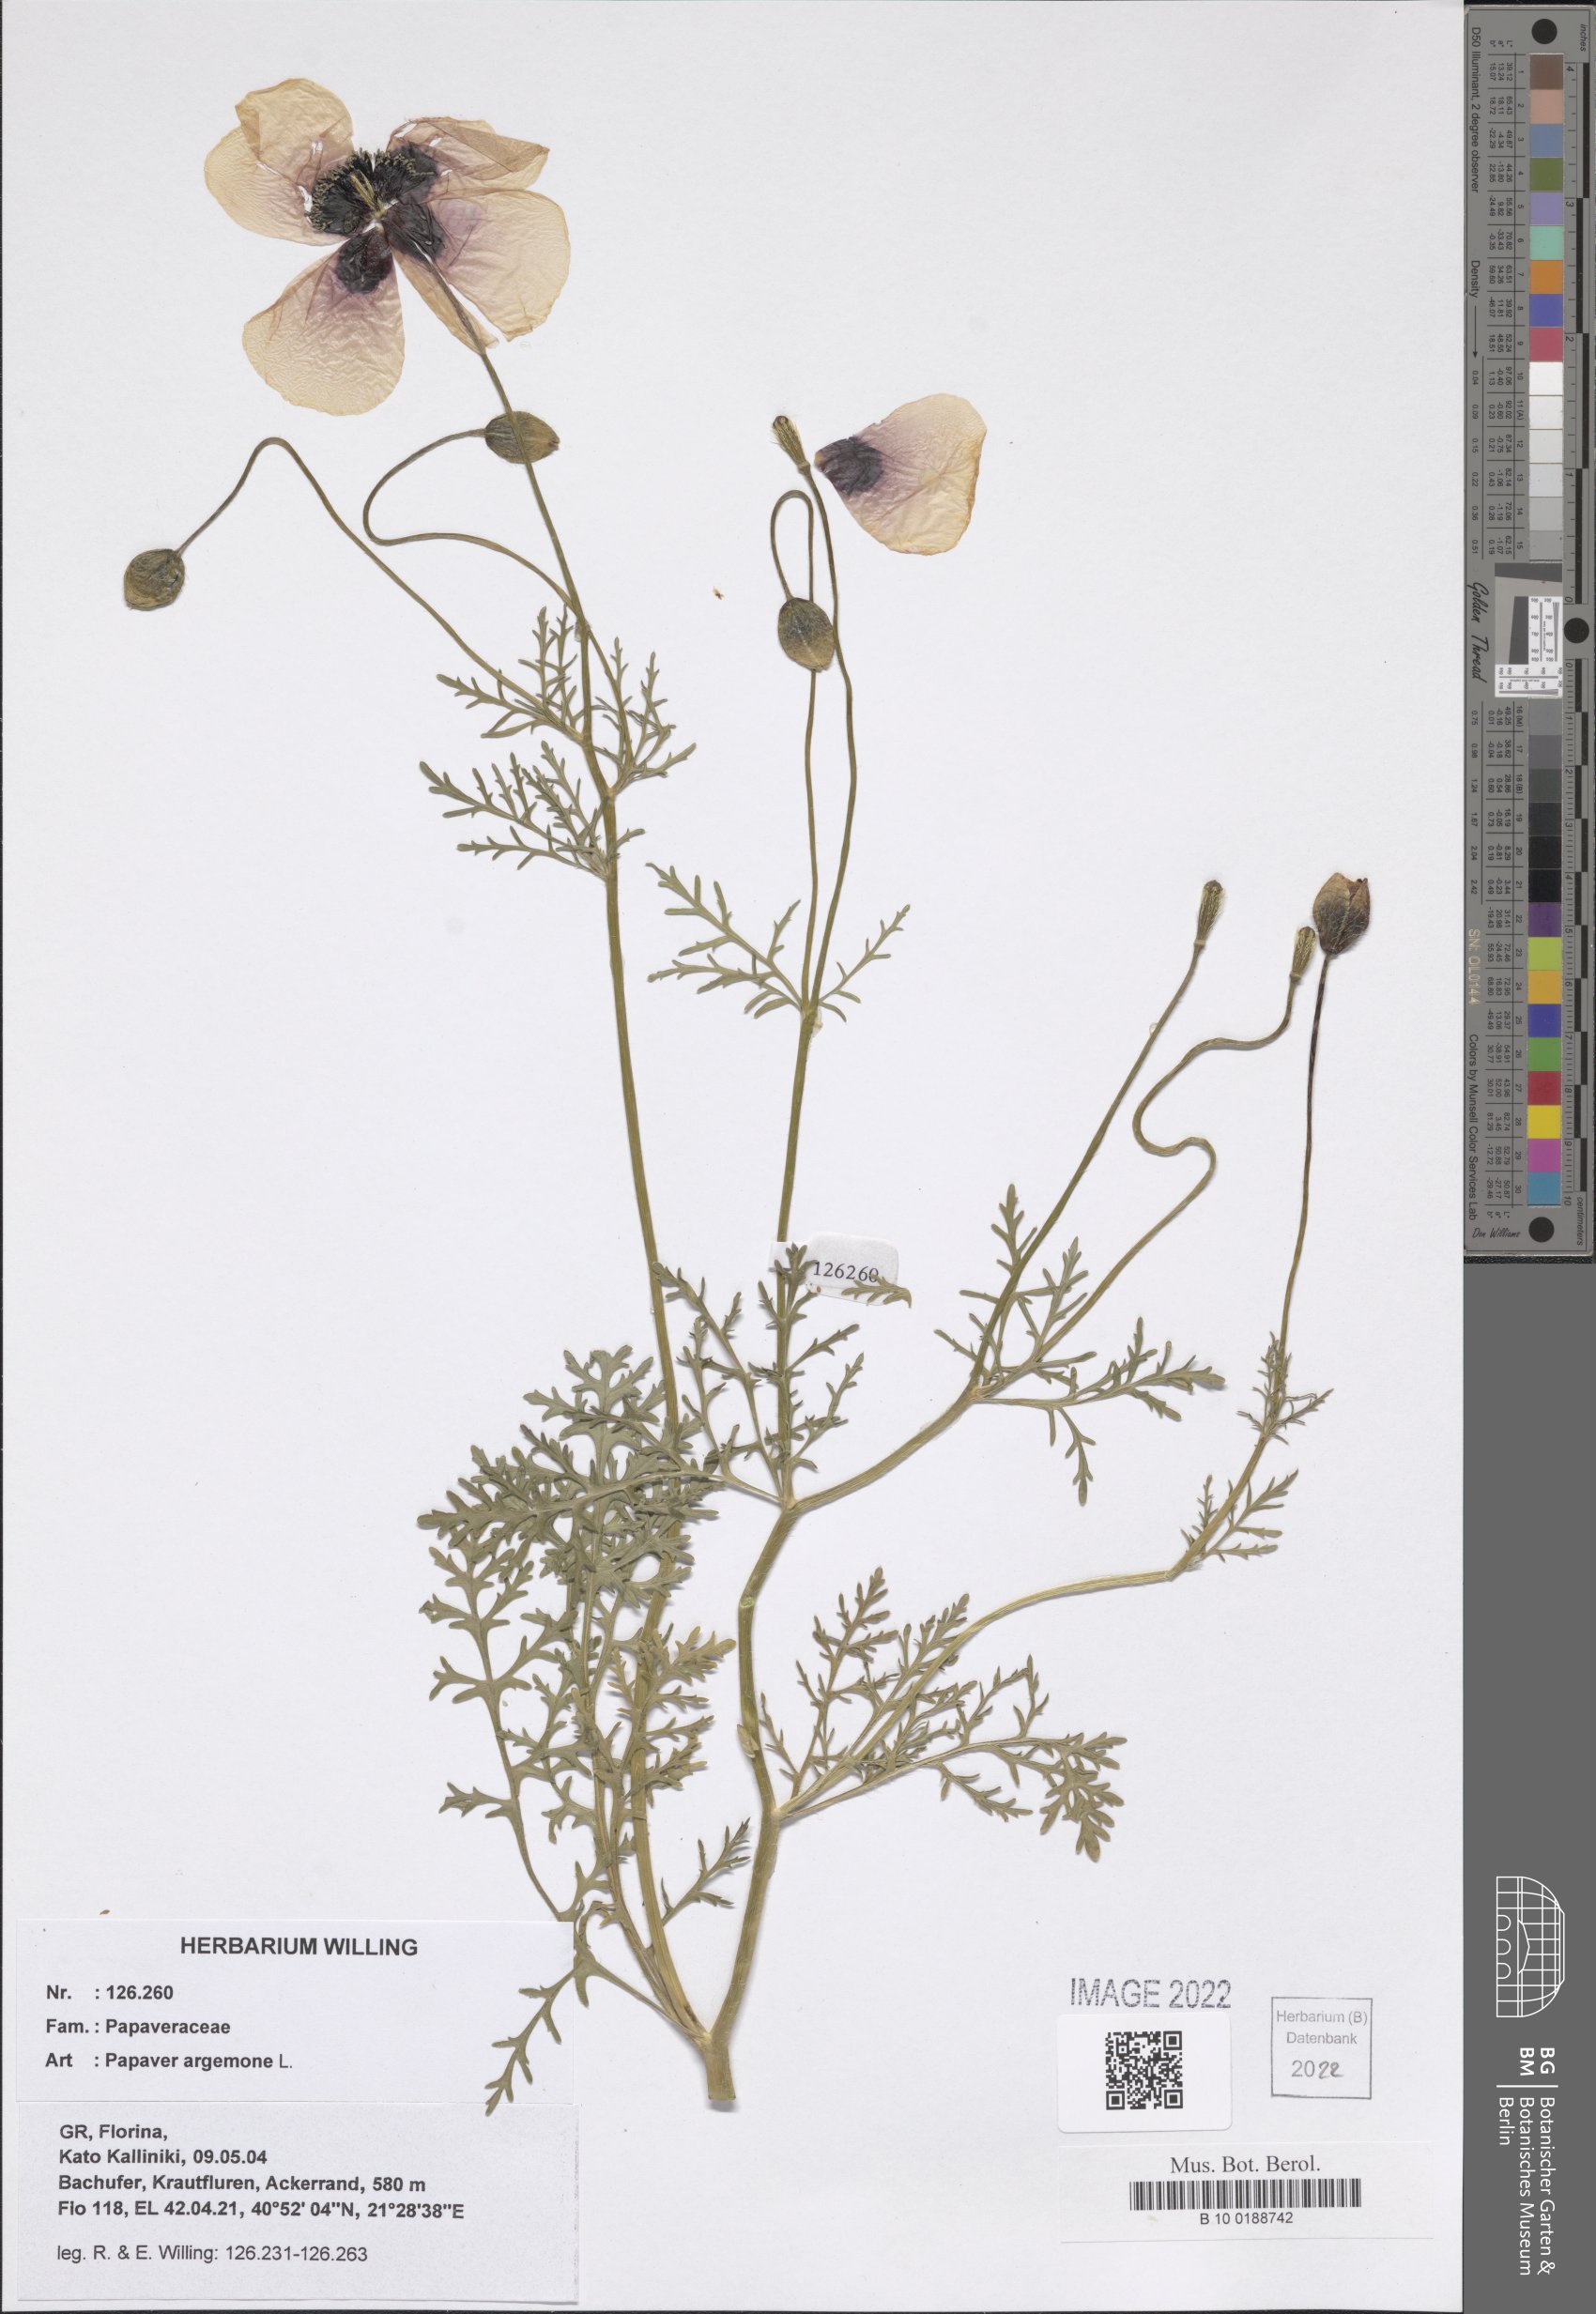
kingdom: Plantae
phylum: Tracheophyta
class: Magnoliopsida
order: Ranunculales
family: Papaveraceae
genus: Roemeria
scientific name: Roemeria argemone
